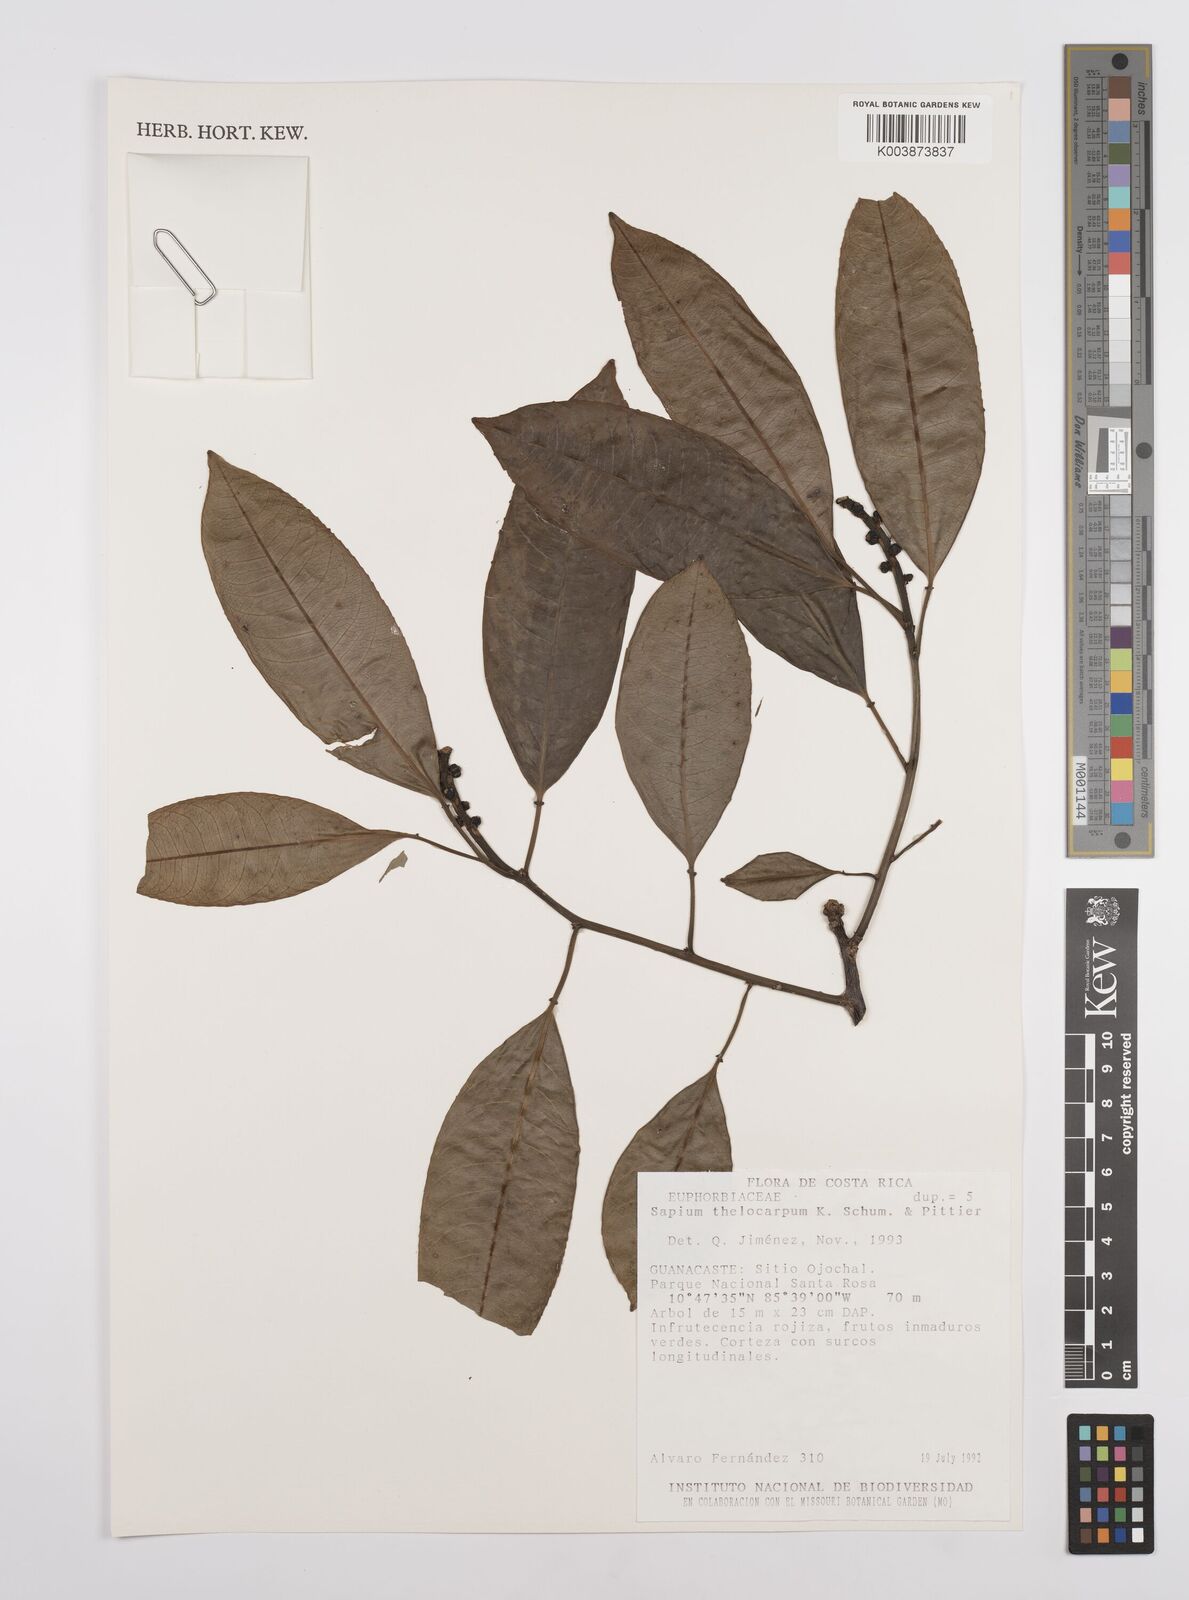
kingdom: Plantae
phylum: Tracheophyta
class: Magnoliopsida
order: Malpighiales
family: Euphorbiaceae
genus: Sapium
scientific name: Sapium macrocarpum
